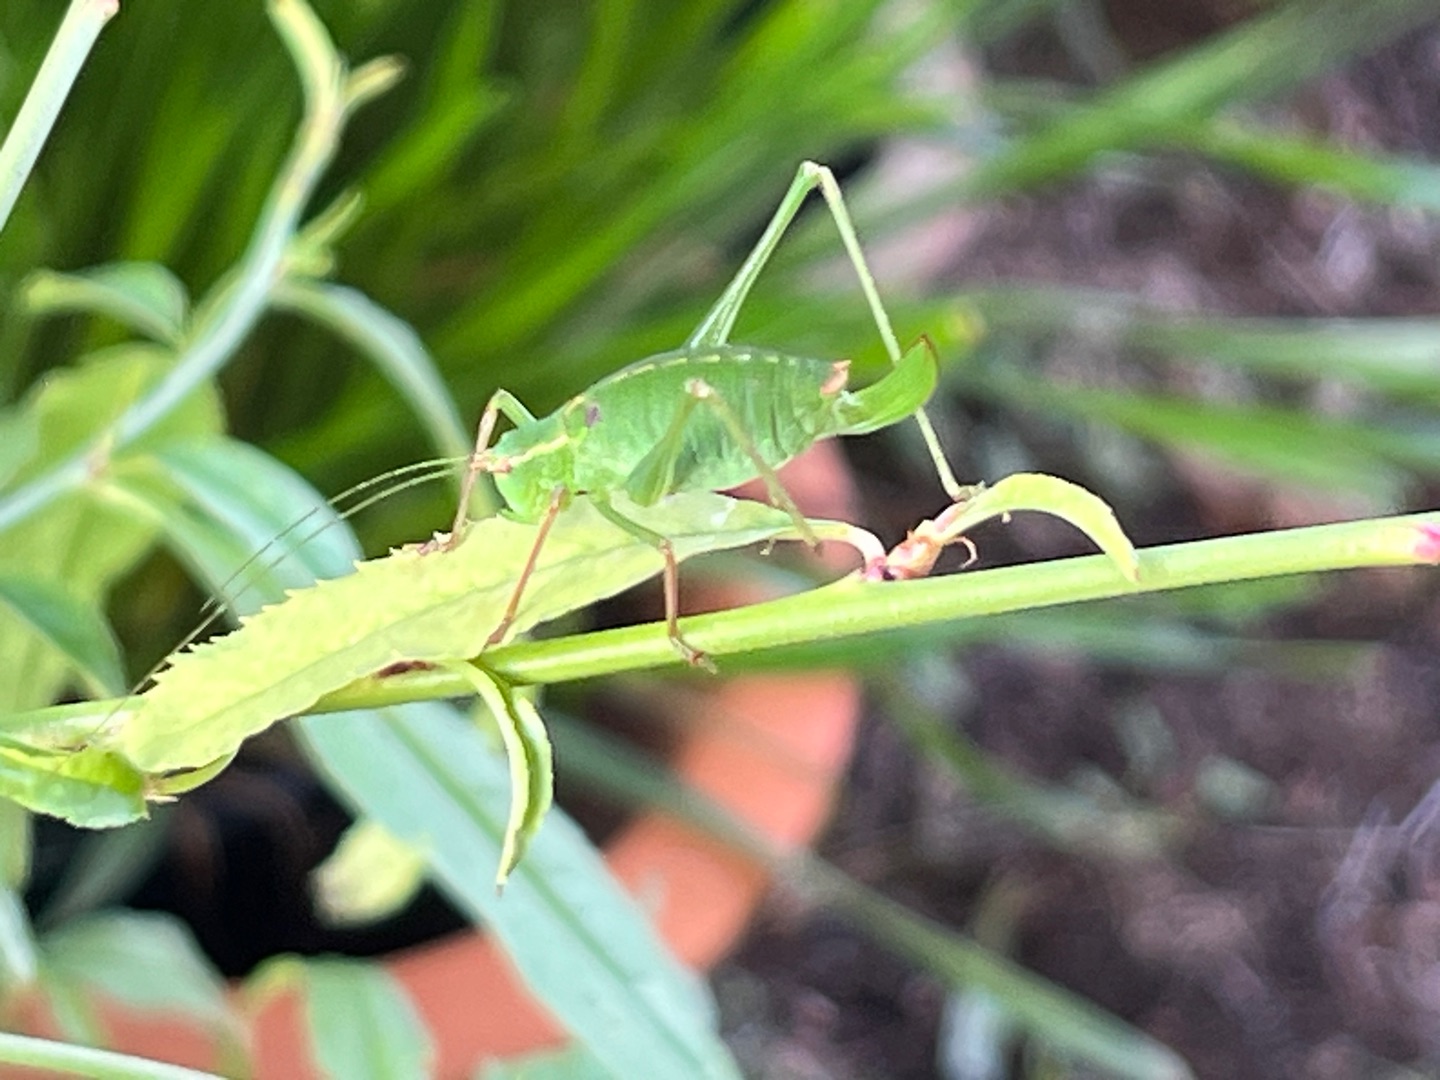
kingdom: Animalia
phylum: Arthropoda
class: Insecta
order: Orthoptera
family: Tettigoniidae
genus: Leptophyes
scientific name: Leptophyes punctatissima
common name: Krumknivgræshoppe
